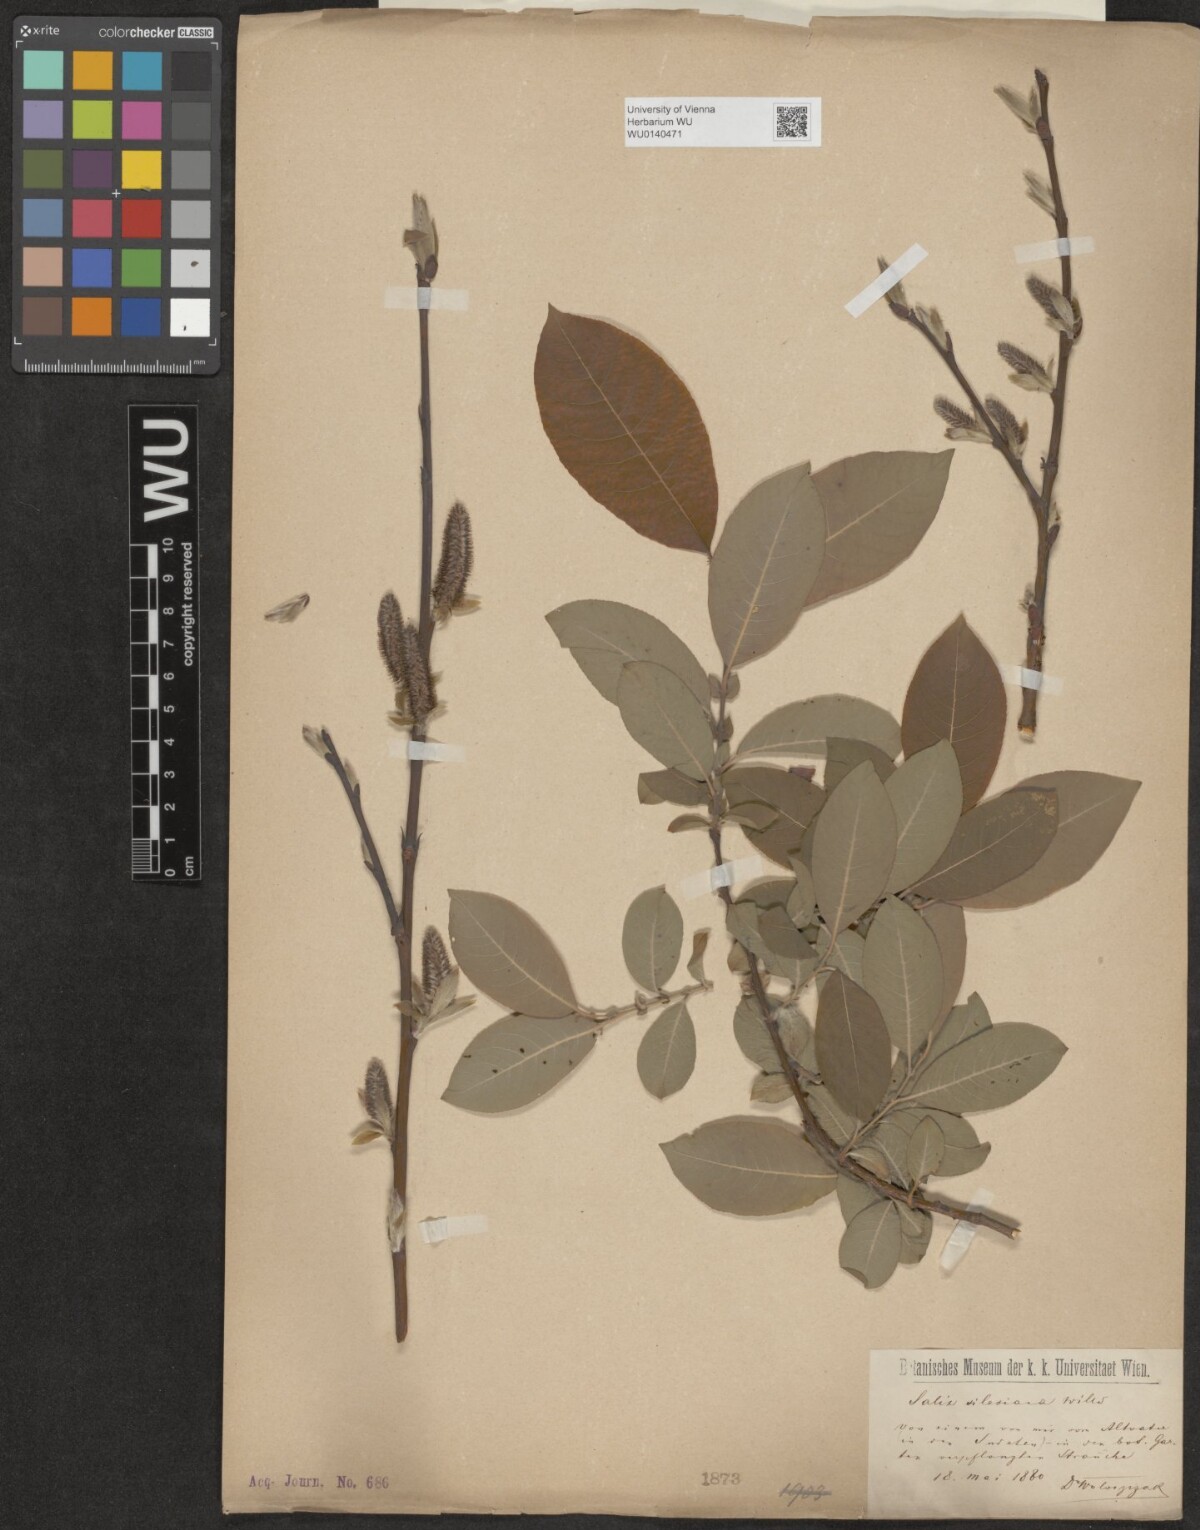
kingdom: Plantae
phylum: Tracheophyta
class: Magnoliopsida
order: Malpighiales
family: Salicaceae
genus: Salix
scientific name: Salix silesiaca
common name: Silesian willow
